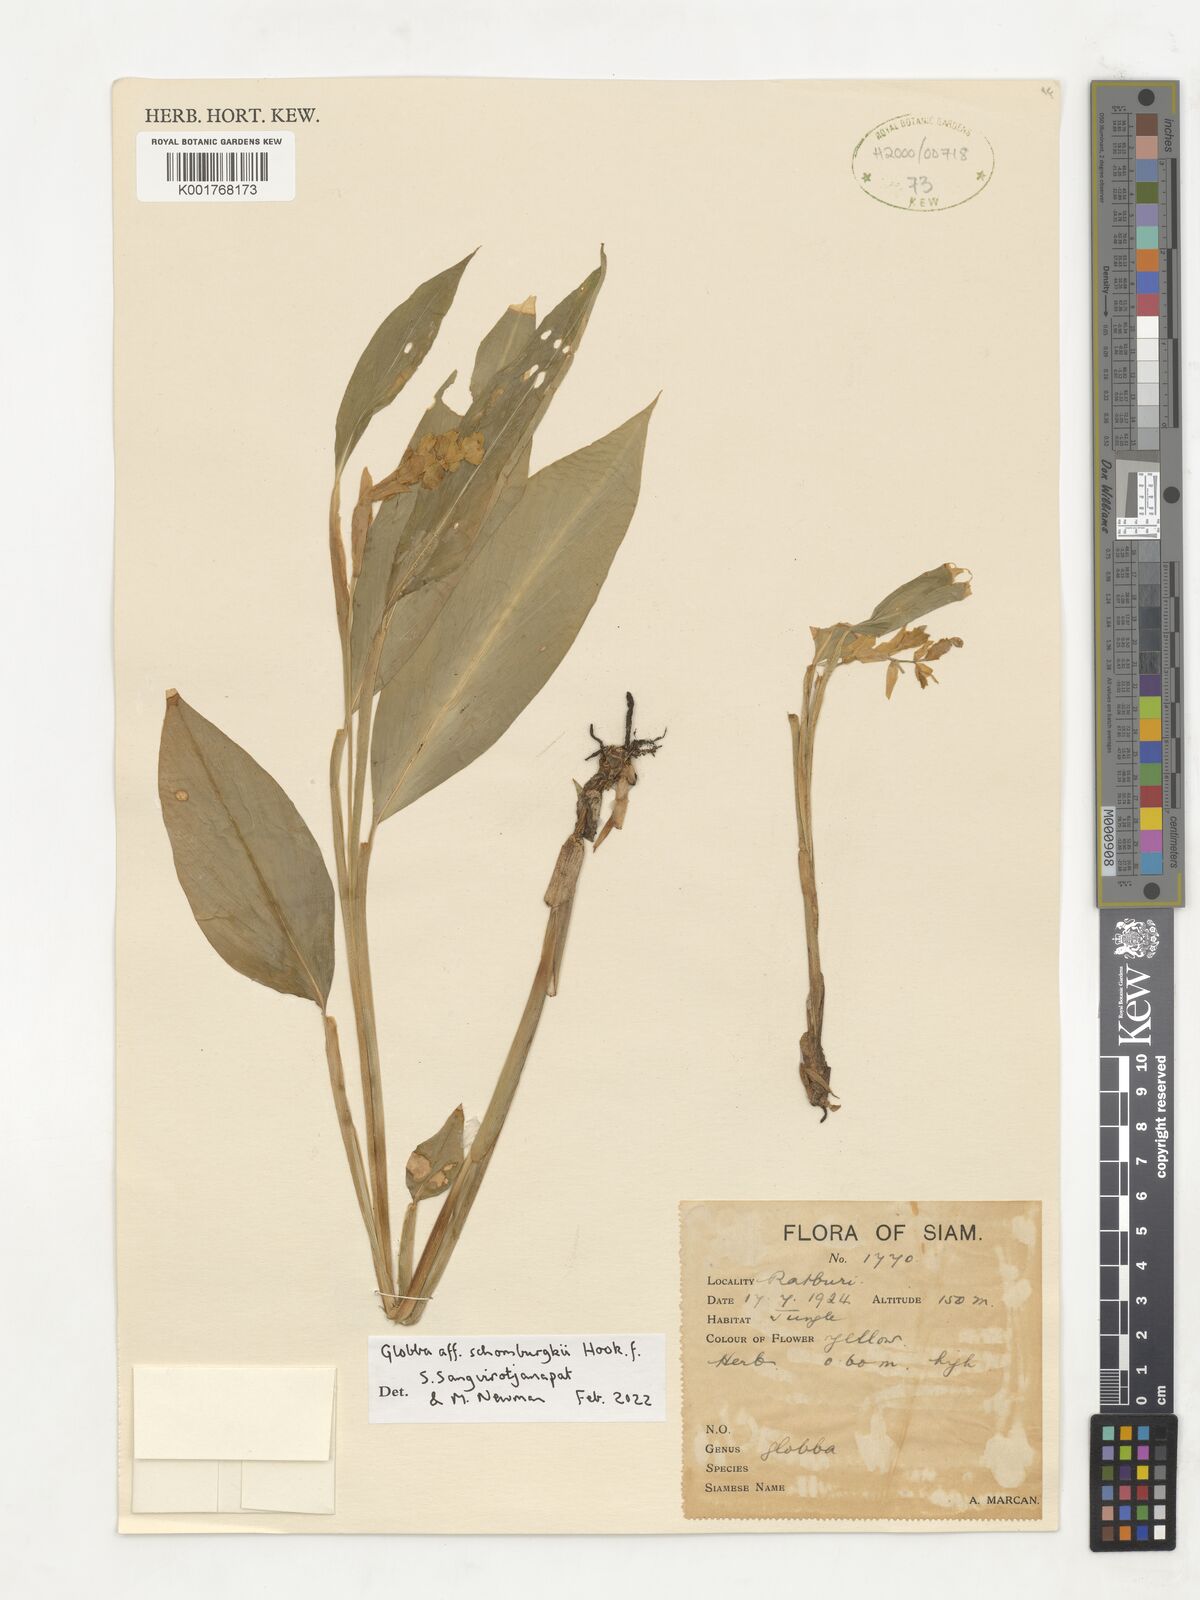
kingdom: Plantae
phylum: Tracheophyta
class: Liliopsida
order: Zingiberales
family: Zingiberaceae
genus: Globba
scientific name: Globba schomburgkii
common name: Dancing girl ginger
